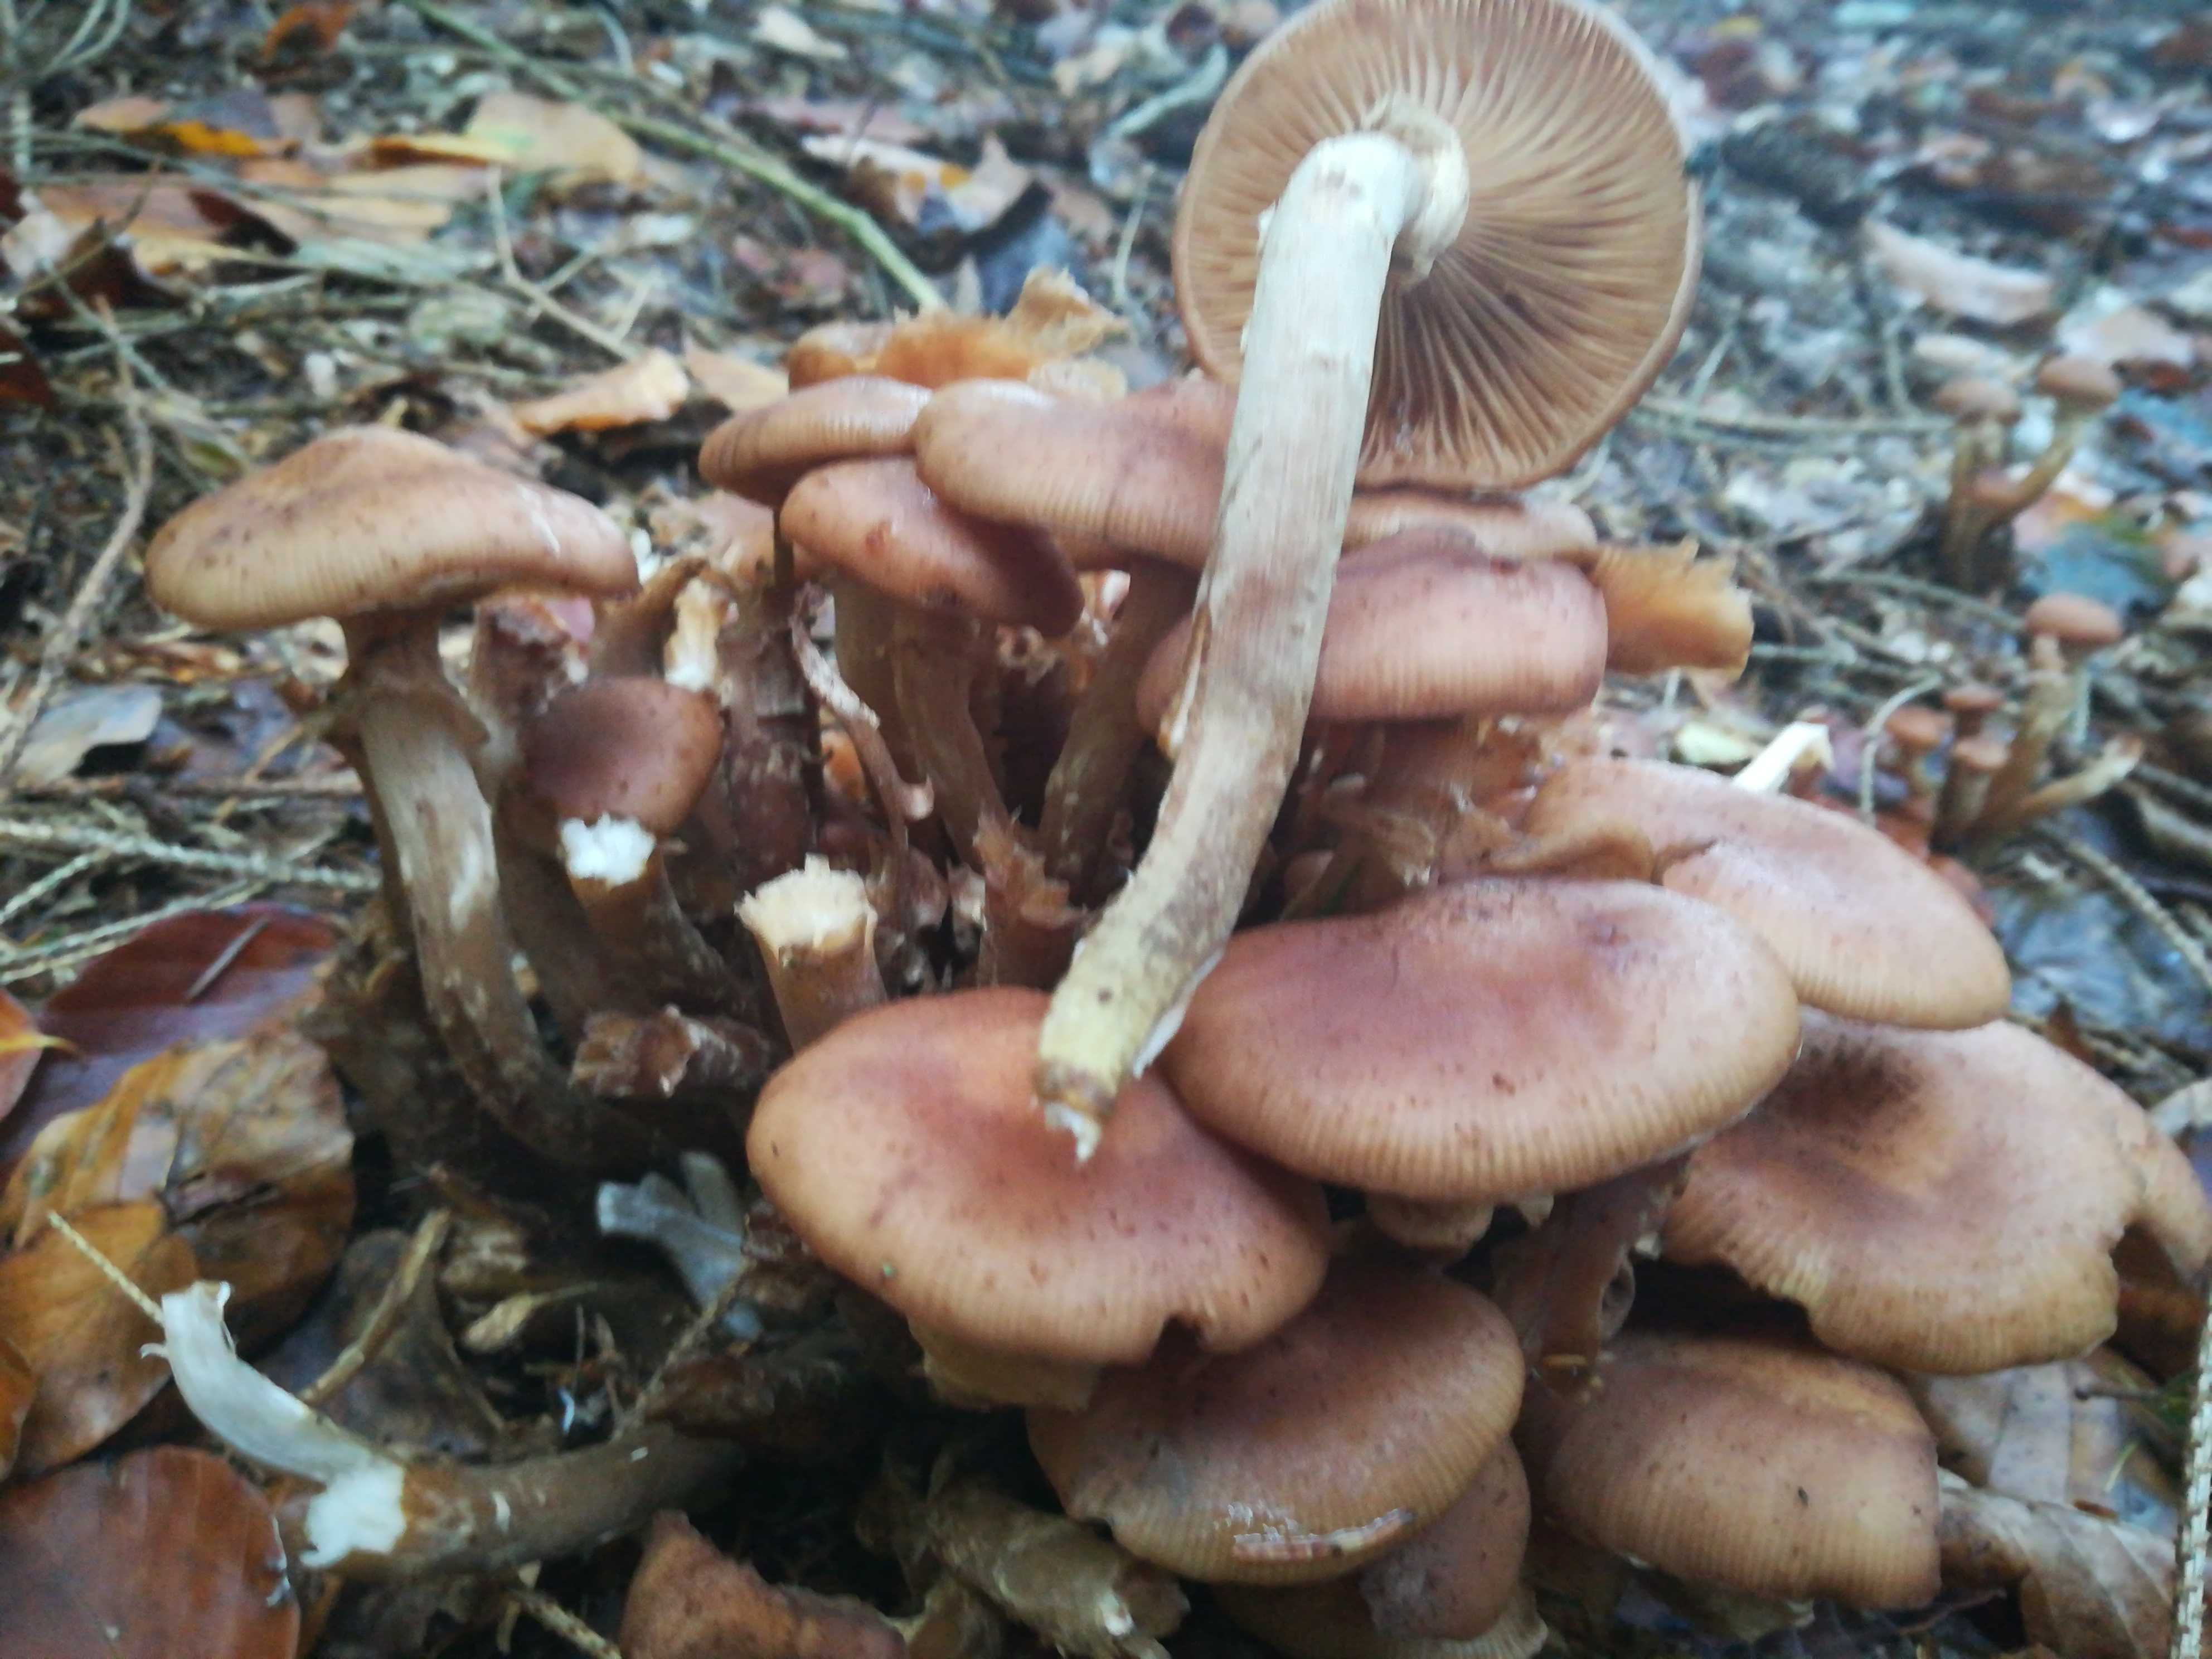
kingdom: Fungi
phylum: Basidiomycota
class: Agaricomycetes
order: Agaricales
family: Physalacriaceae
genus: Armillaria
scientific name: Armillaria ostoyae
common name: mørk honningsvamp
